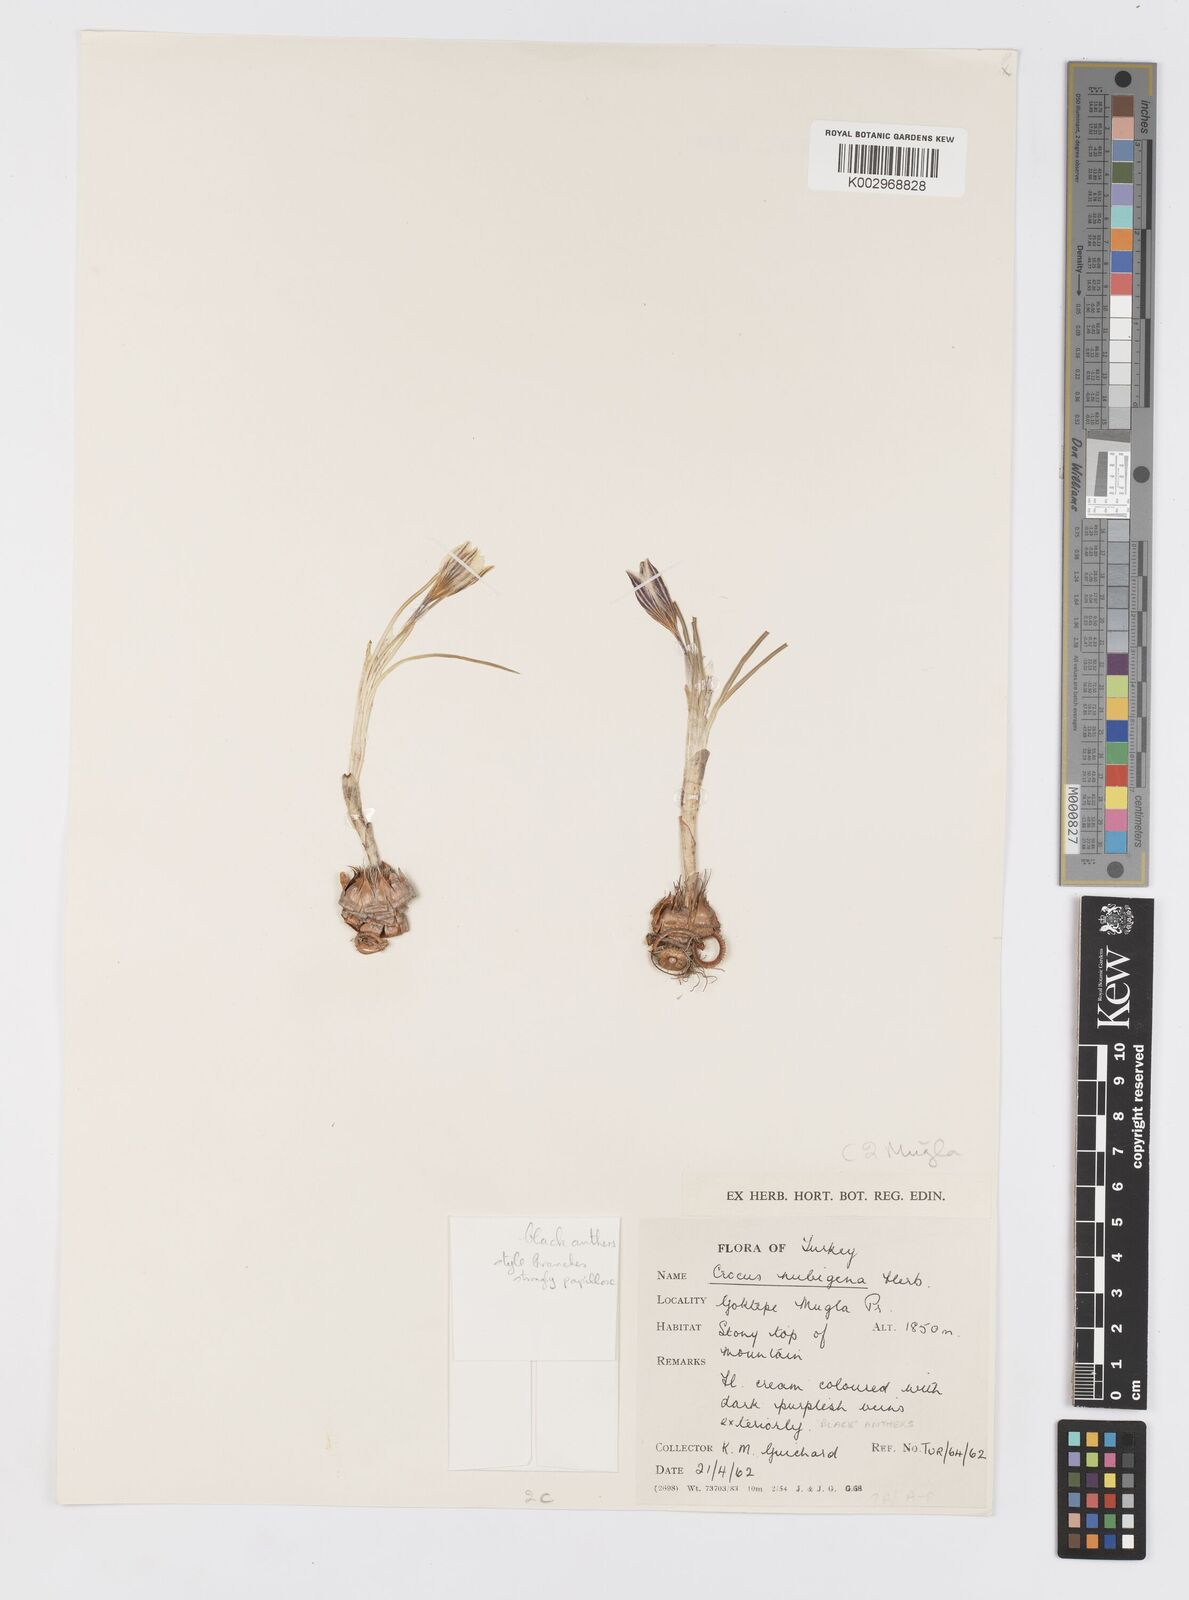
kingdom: Plantae
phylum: Tracheophyta
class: Liliopsida
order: Asparagales
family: Iridaceae
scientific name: Iridaceae
